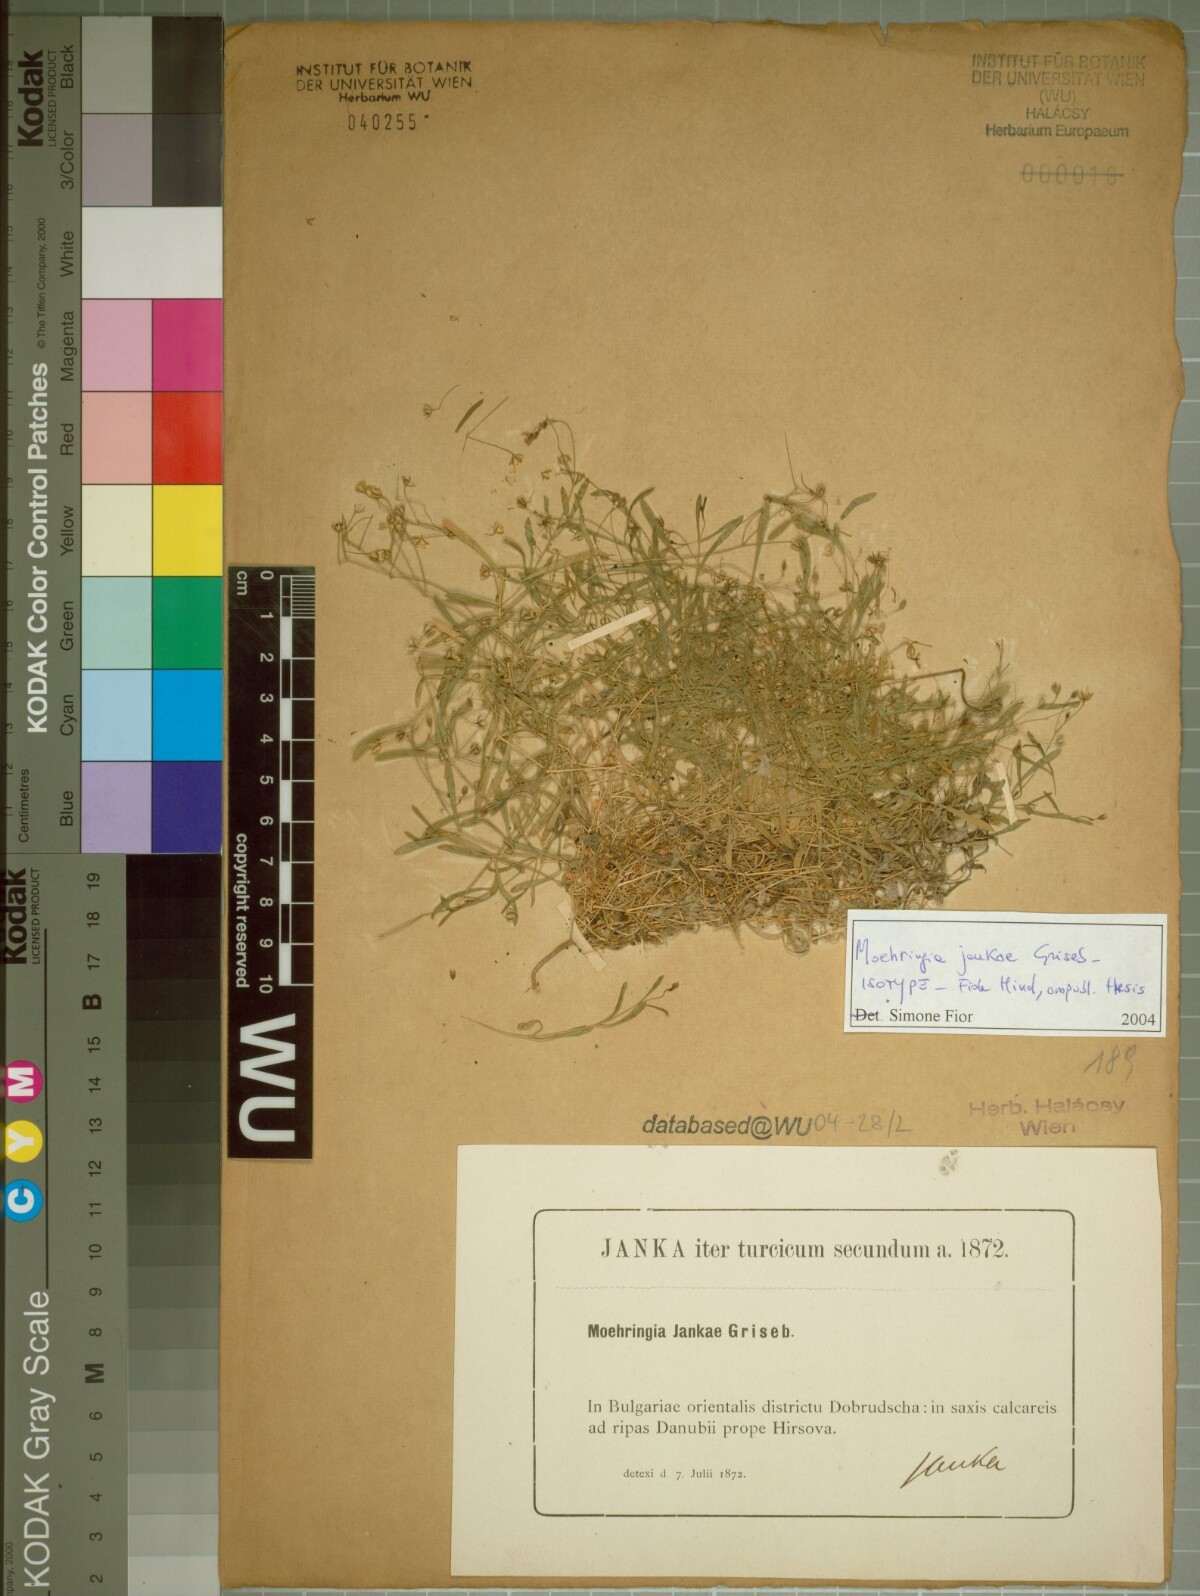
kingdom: Plantae
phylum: Tracheophyta
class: Magnoliopsida
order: Caryophyllales
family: Caryophyllaceae
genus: Moehringia
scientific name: Moehringia jankae
